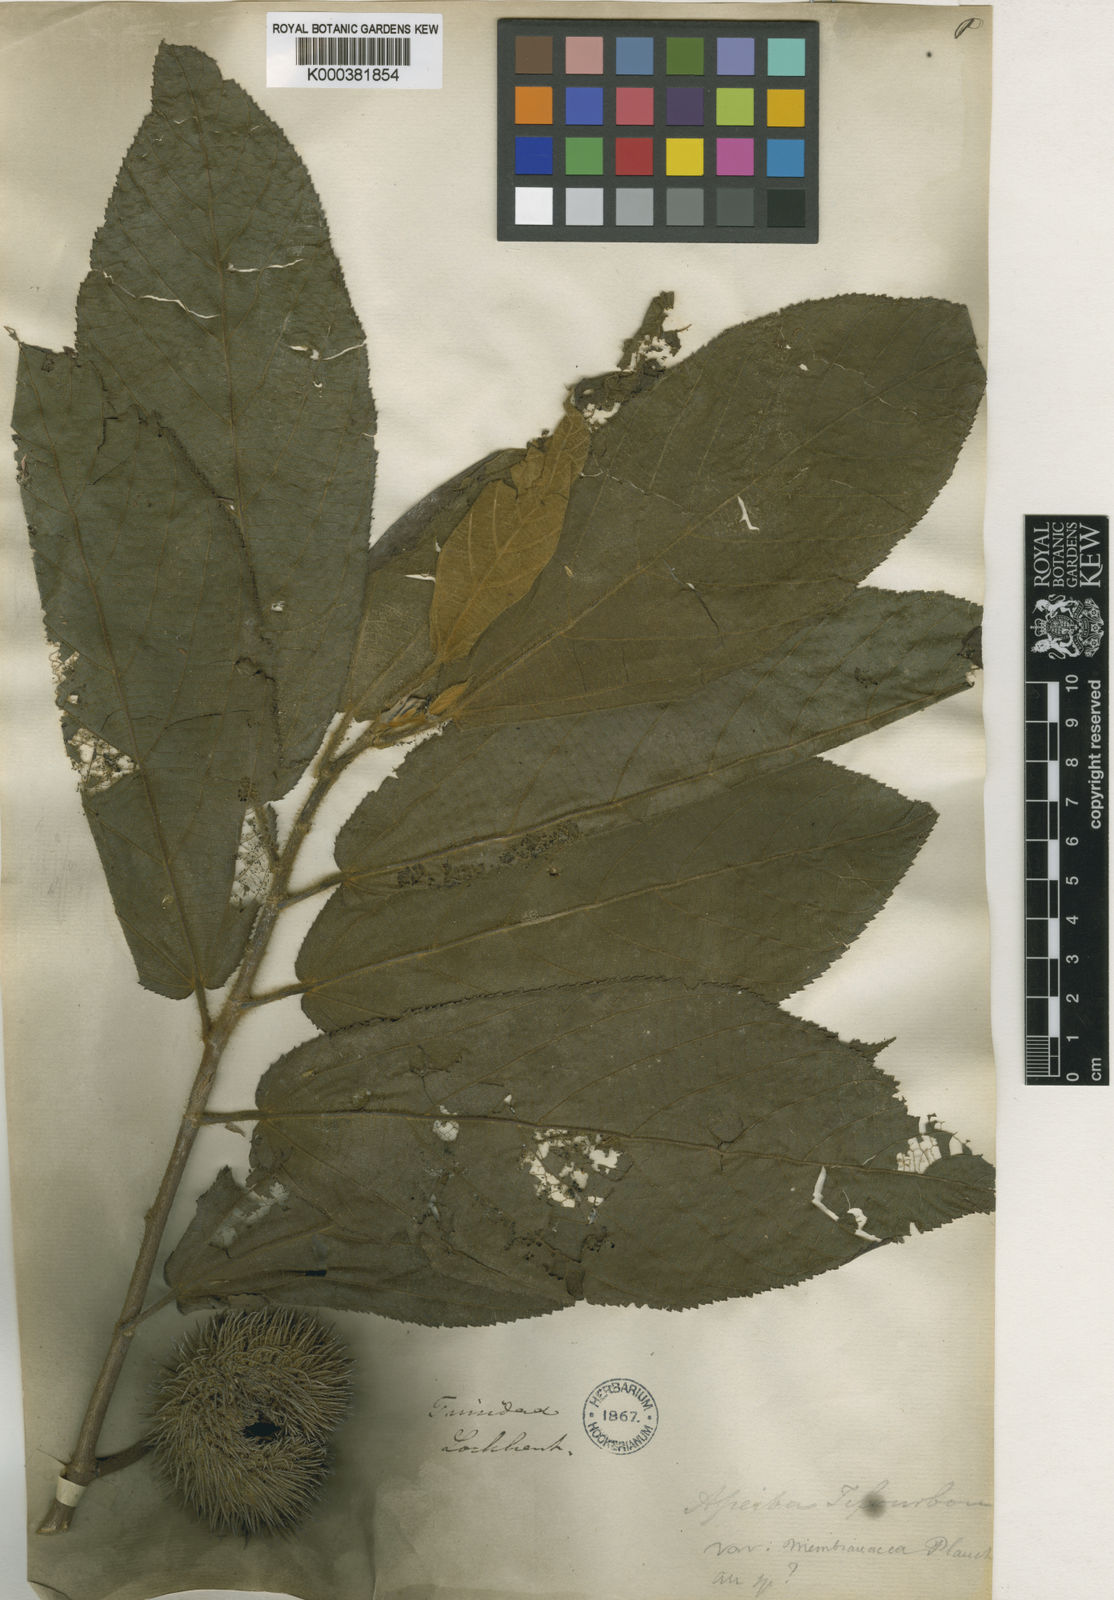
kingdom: Plantae
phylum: Tracheophyta
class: Magnoliopsida
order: Malvales
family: Malvaceae
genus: Apeiba
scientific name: Apeiba schomburgkii
